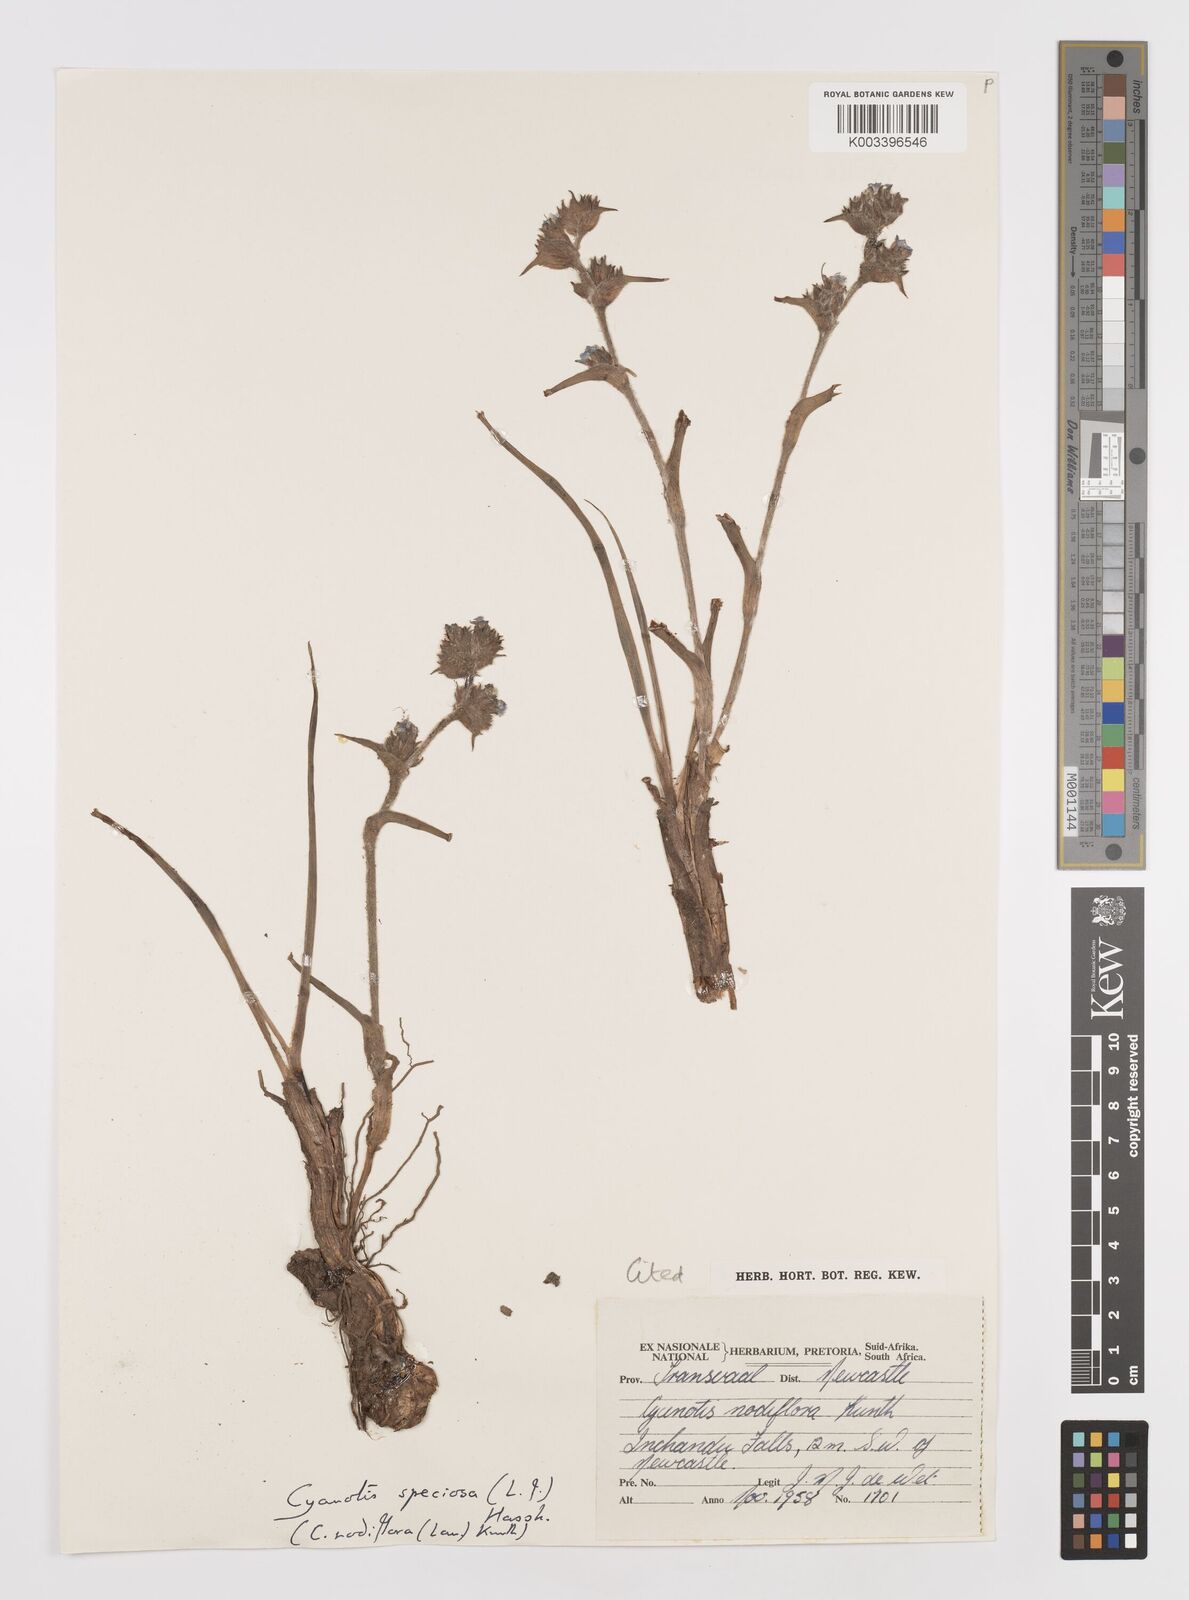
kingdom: Plantae
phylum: Tracheophyta
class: Liliopsida
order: Commelinales
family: Commelinaceae
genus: Cyanotis
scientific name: Cyanotis speciosa
